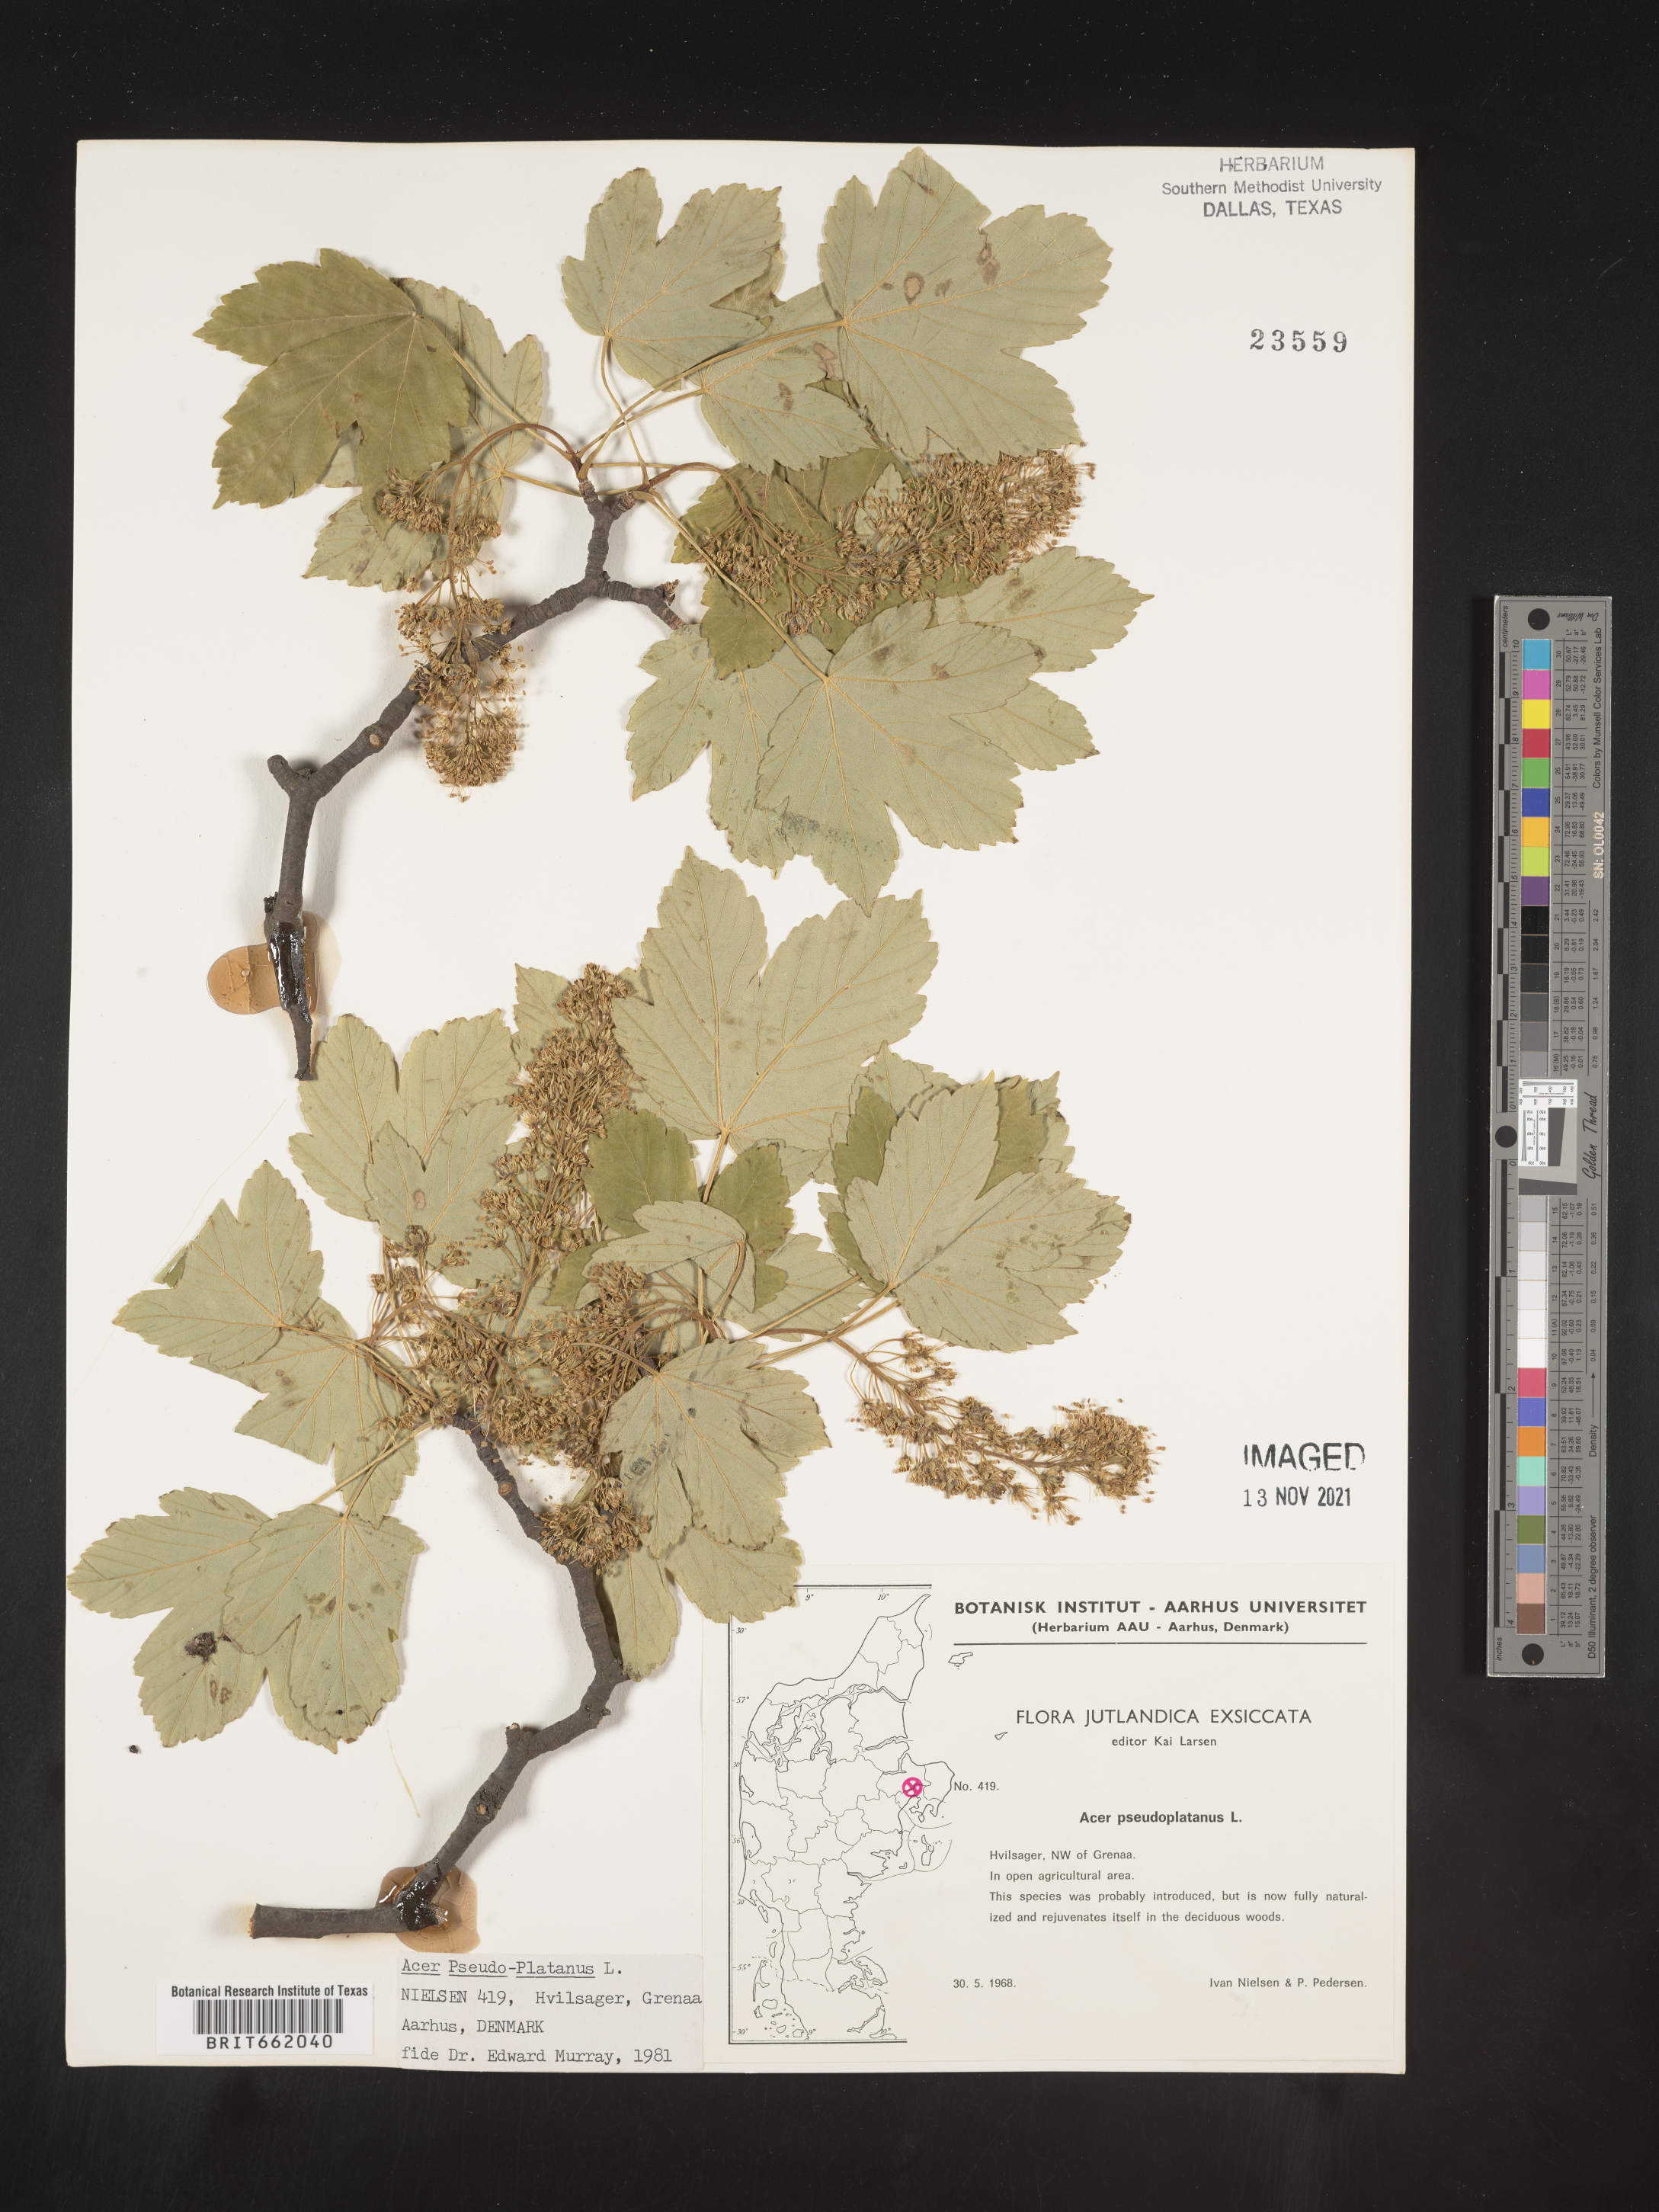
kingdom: Plantae
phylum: Tracheophyta
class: Magnoliopsida
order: Sapindales
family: Sapindaceae
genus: Acer
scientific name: Acer
